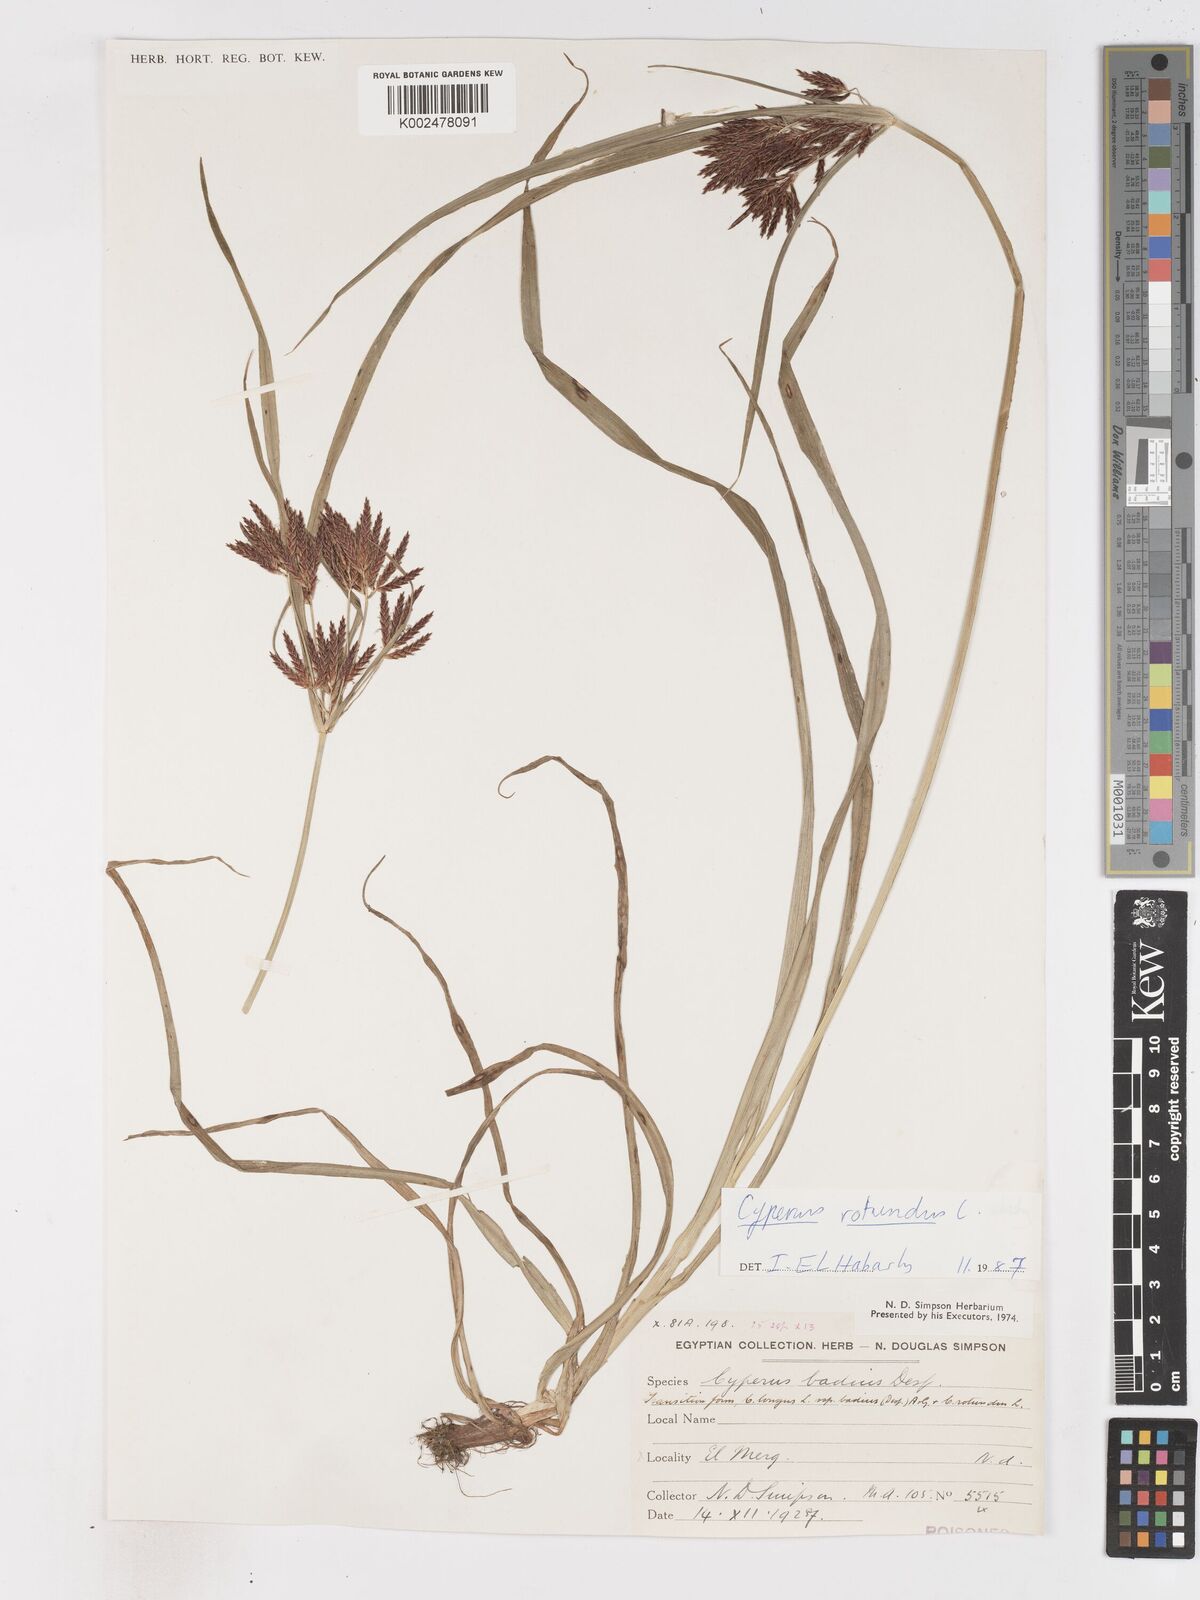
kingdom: Plantae
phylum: Tracheophyta
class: Liliopsida
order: Poales
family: Cyperaceae
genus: Cyperus
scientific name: Cyperus rotundus
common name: Nutgrass
